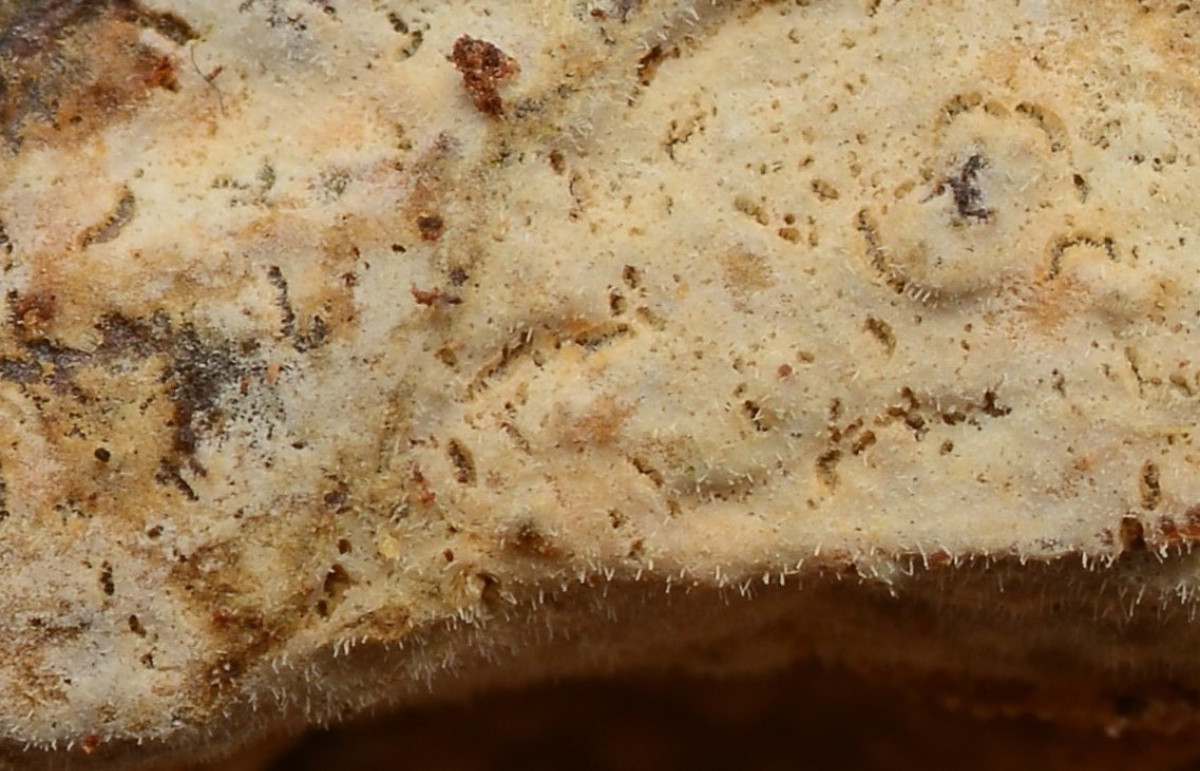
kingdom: Fungi
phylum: Basidiomycota
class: Agaricomycetes
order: Hymenochaetales
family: Rickenellaceae
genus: Peniophorella
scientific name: Peniophorella pubera
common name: dunet kalkskind
